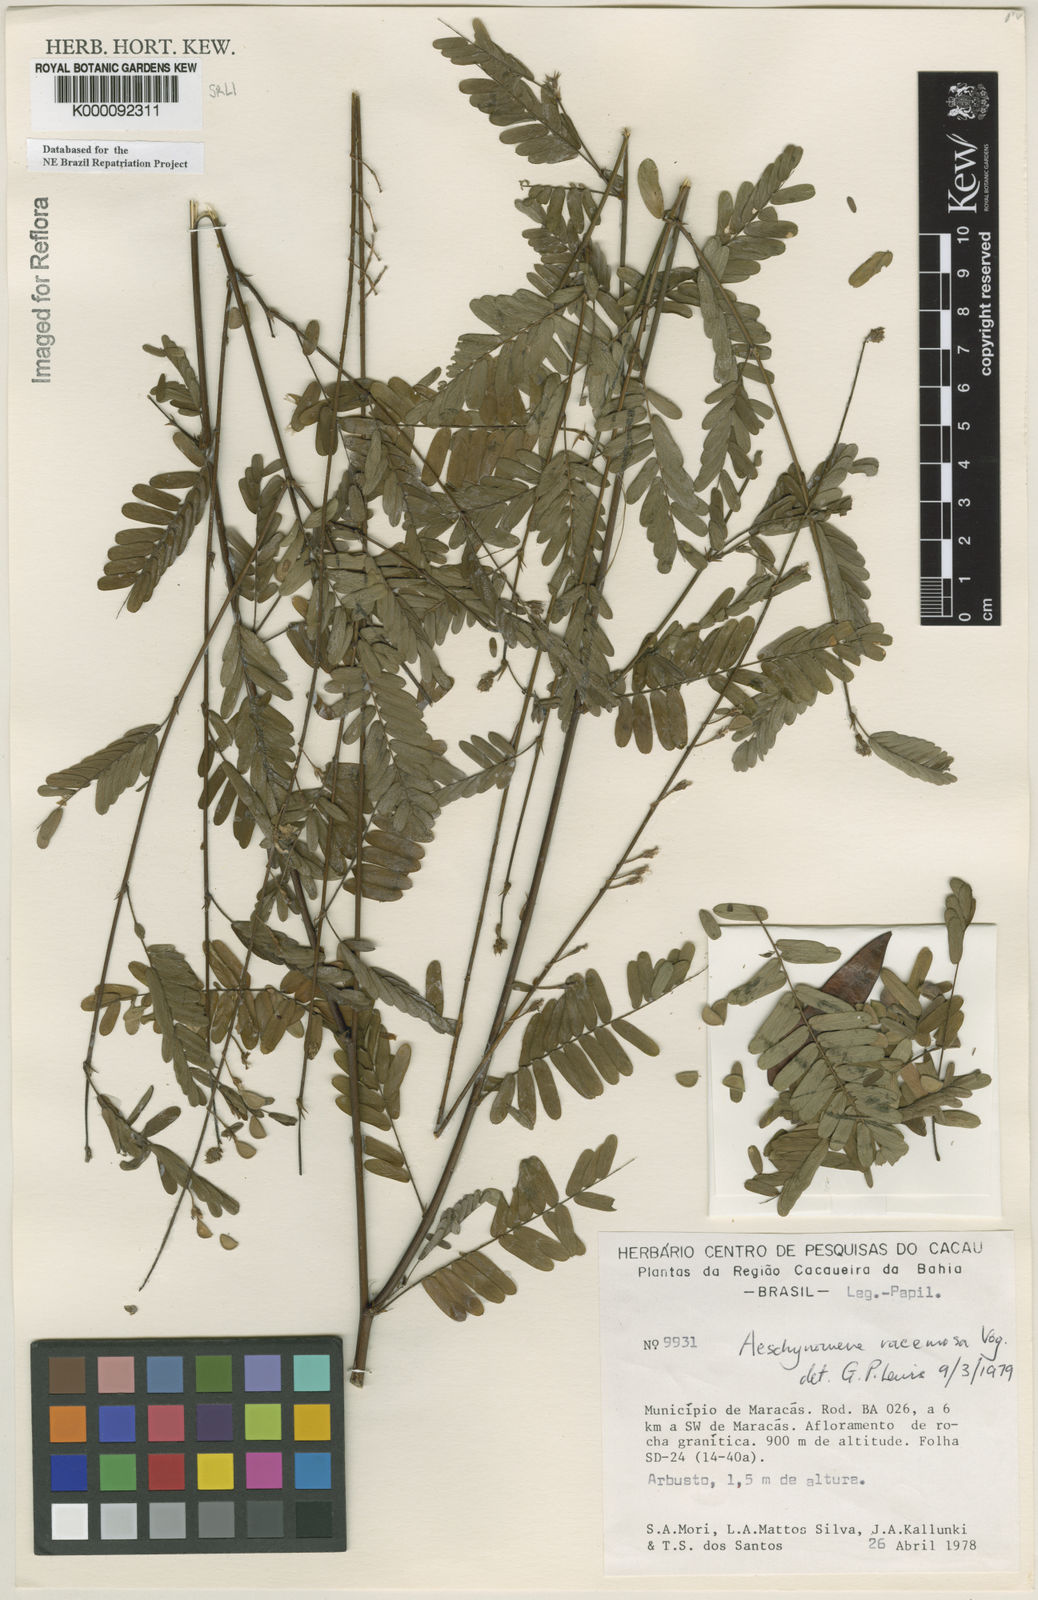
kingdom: Plantae
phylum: Tracheophyta
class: Magnoliopsida
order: Fabales
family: Fabaceae
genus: Ctenodon
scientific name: Ctenodon racemosus
